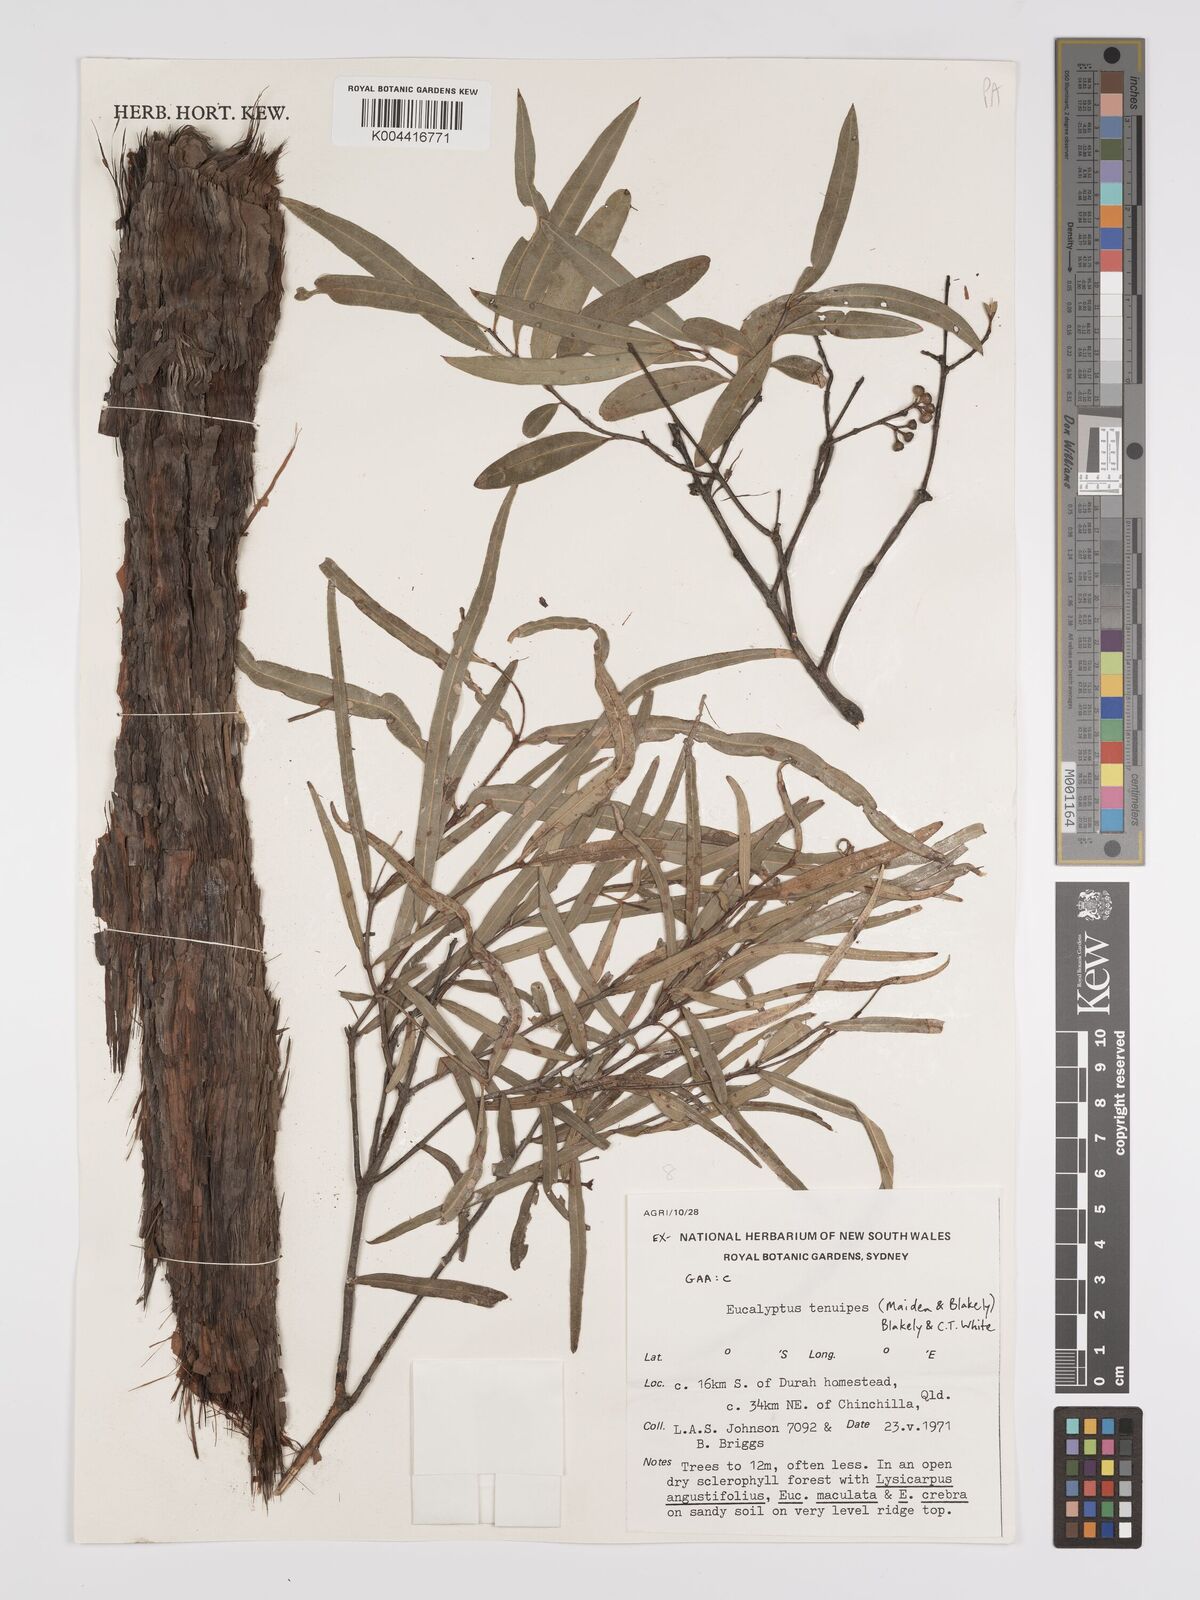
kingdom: Plantae
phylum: Tracheophyta
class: Magnoliopsida
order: Myrtales
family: Myrtaceae
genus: Eucalyptus
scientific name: Eucalyptus tenuipes
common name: Narrow-leaved white mahogany
